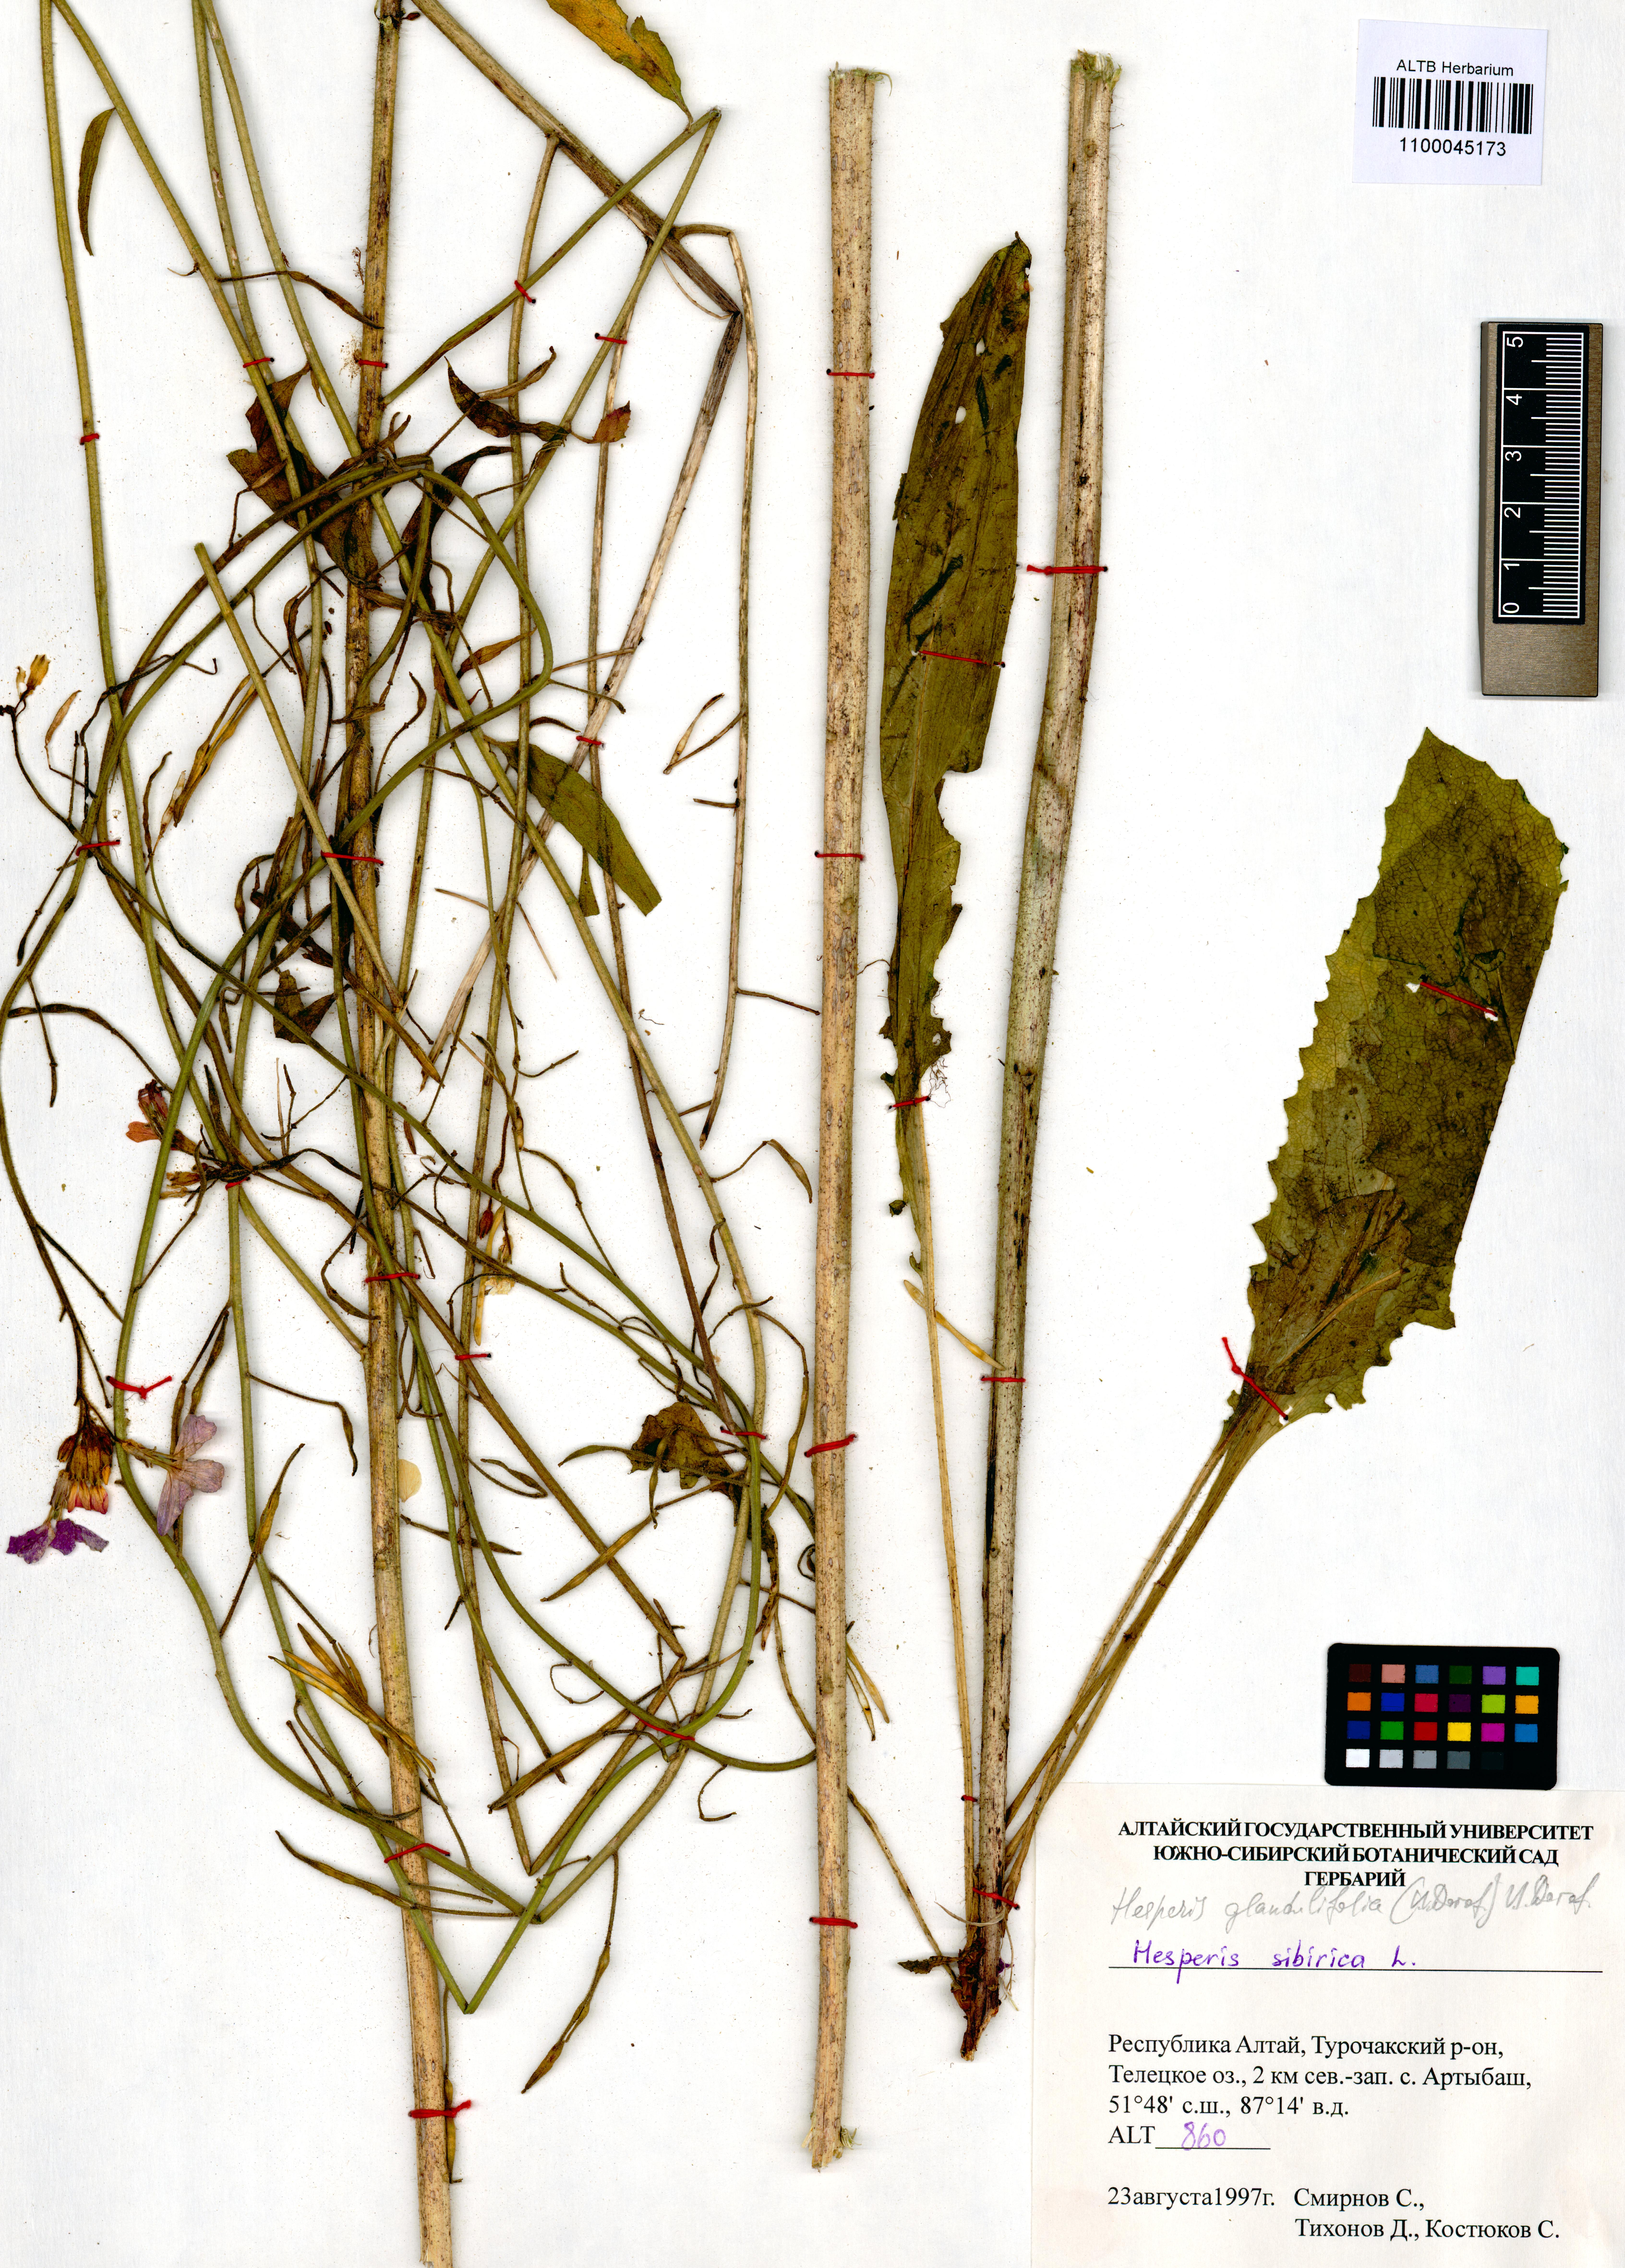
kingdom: Plantae
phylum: Tracheophyta
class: Magnoliopsida
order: Brassicales
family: Brassicaceae
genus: Hesperis
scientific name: Hesperis sibirica
